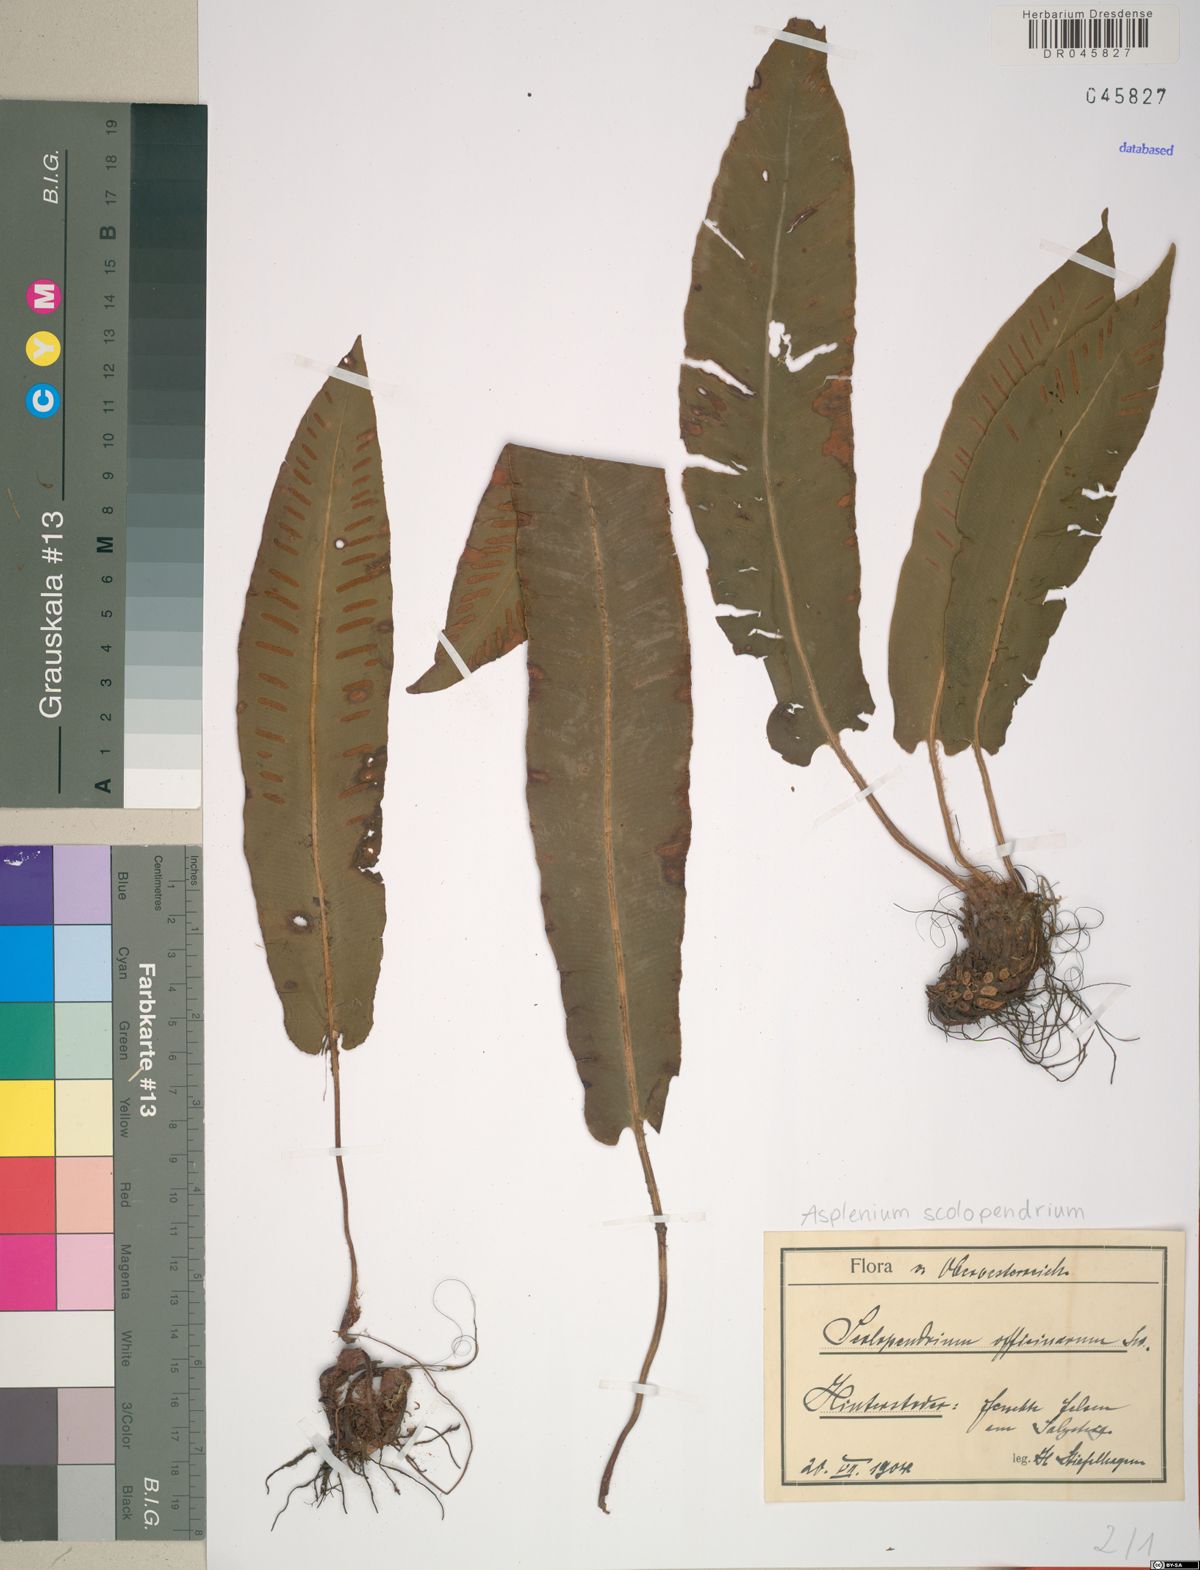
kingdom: Plantae
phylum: Tracheophyta
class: Polypodiopsida
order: Polypodiales
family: Aspleniaceae
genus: Asplenium
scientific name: Asplenium scolopendrium
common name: Hart's-tongue fern
